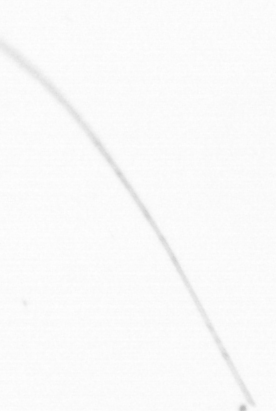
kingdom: Chromista
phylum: Ochrophyta
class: Bacillariophyceae
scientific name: Bacillariophyceae
